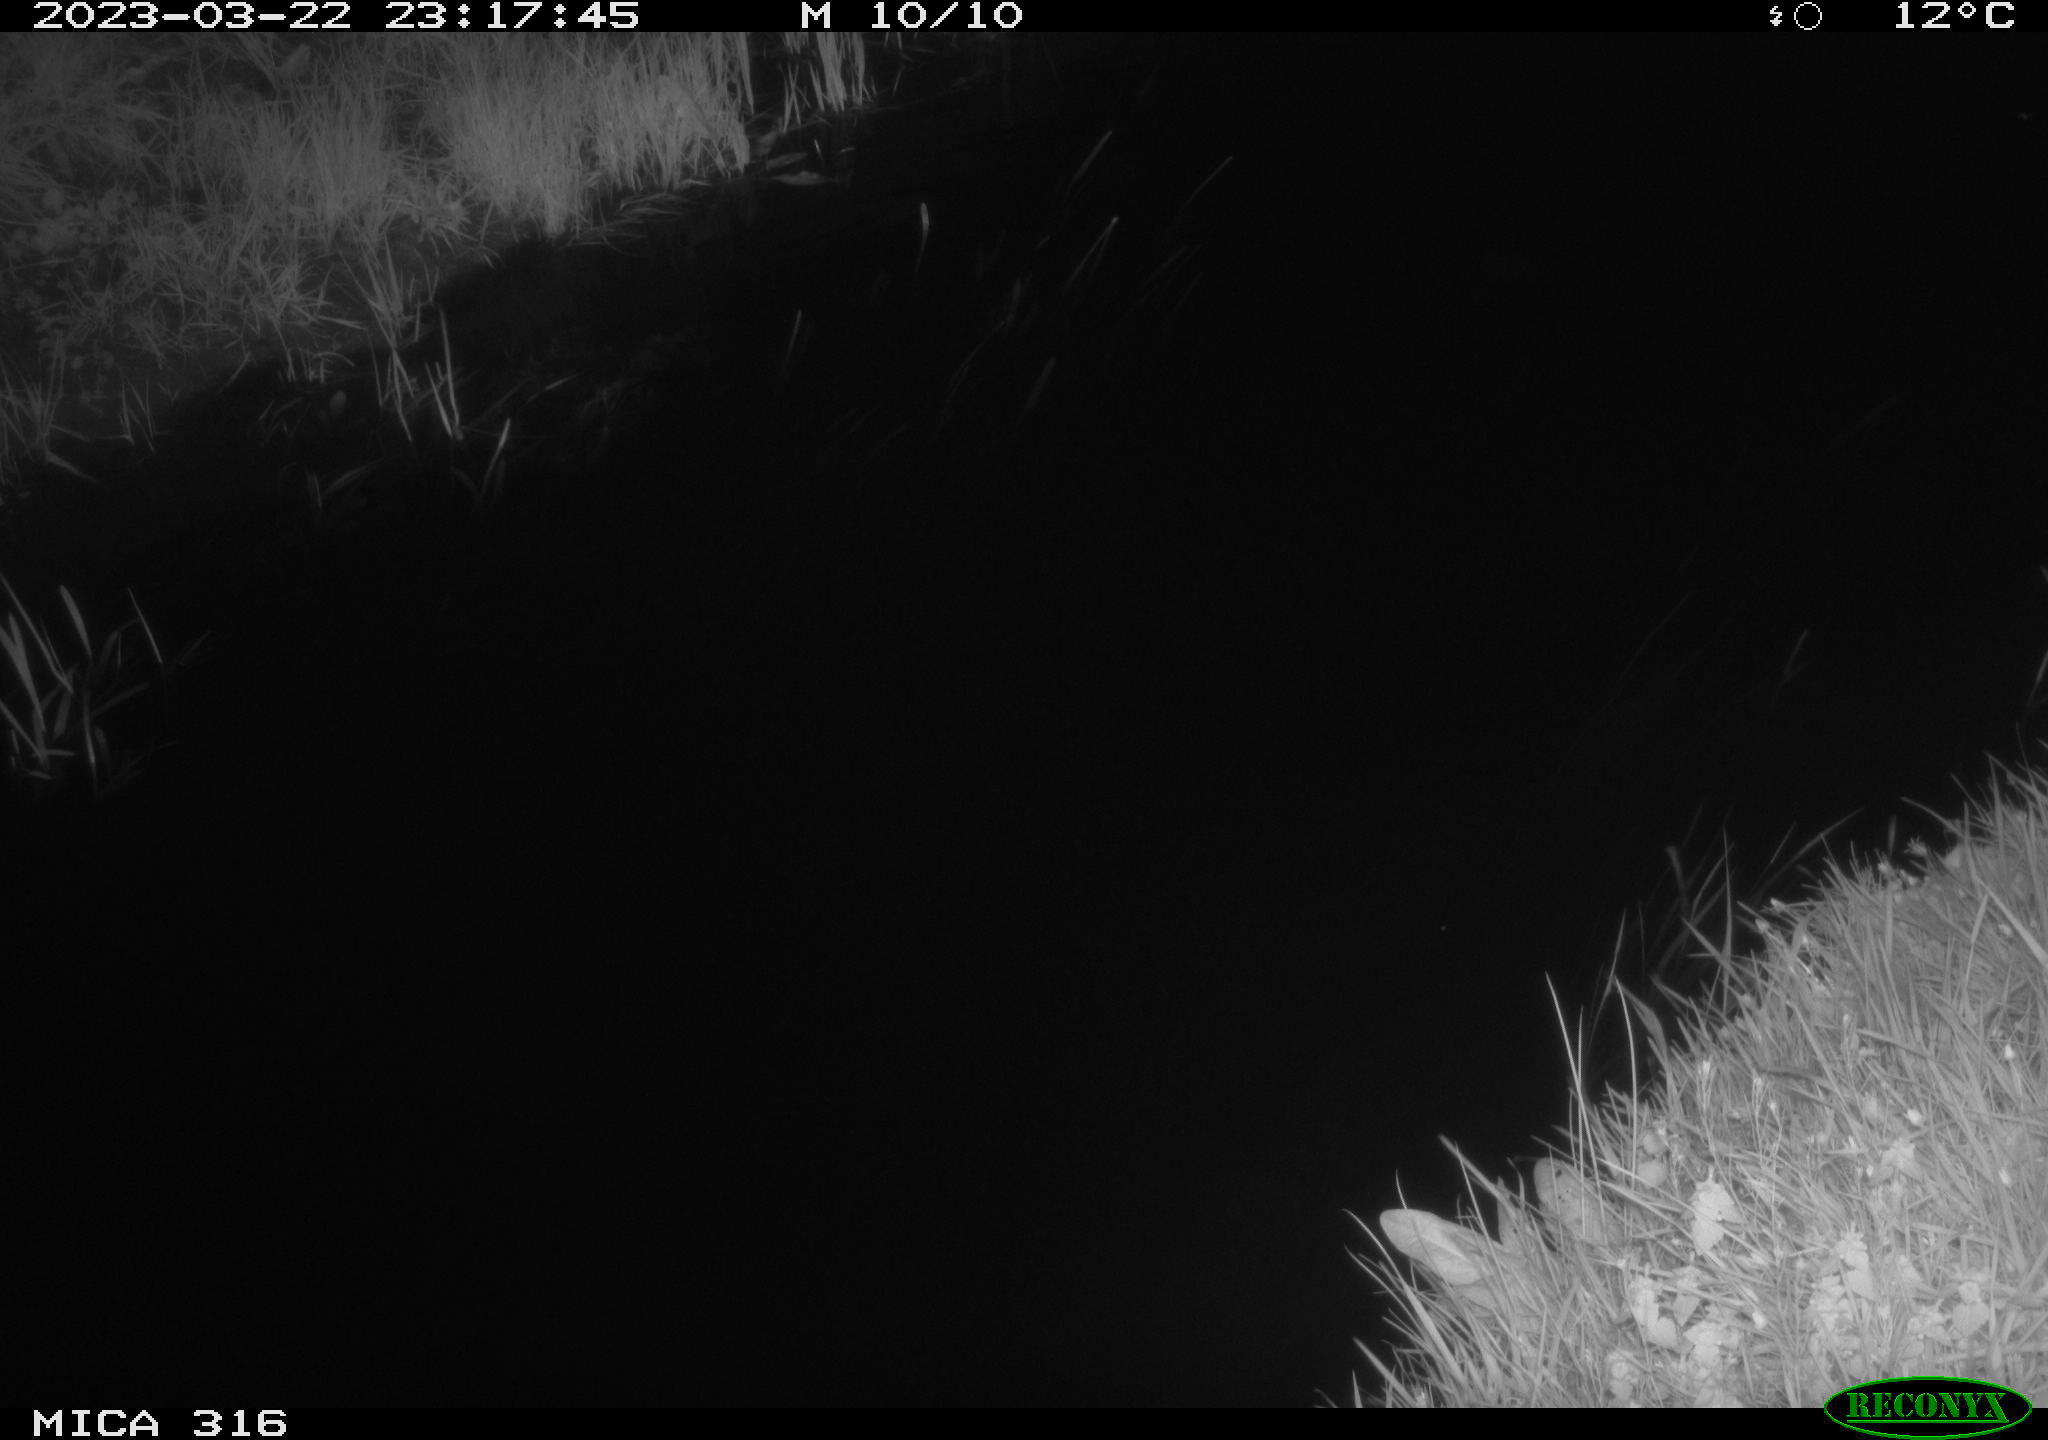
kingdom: Animalia
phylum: Chordata
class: Aves
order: Anseriformes
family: Anatidae
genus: Anas
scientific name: Anas
